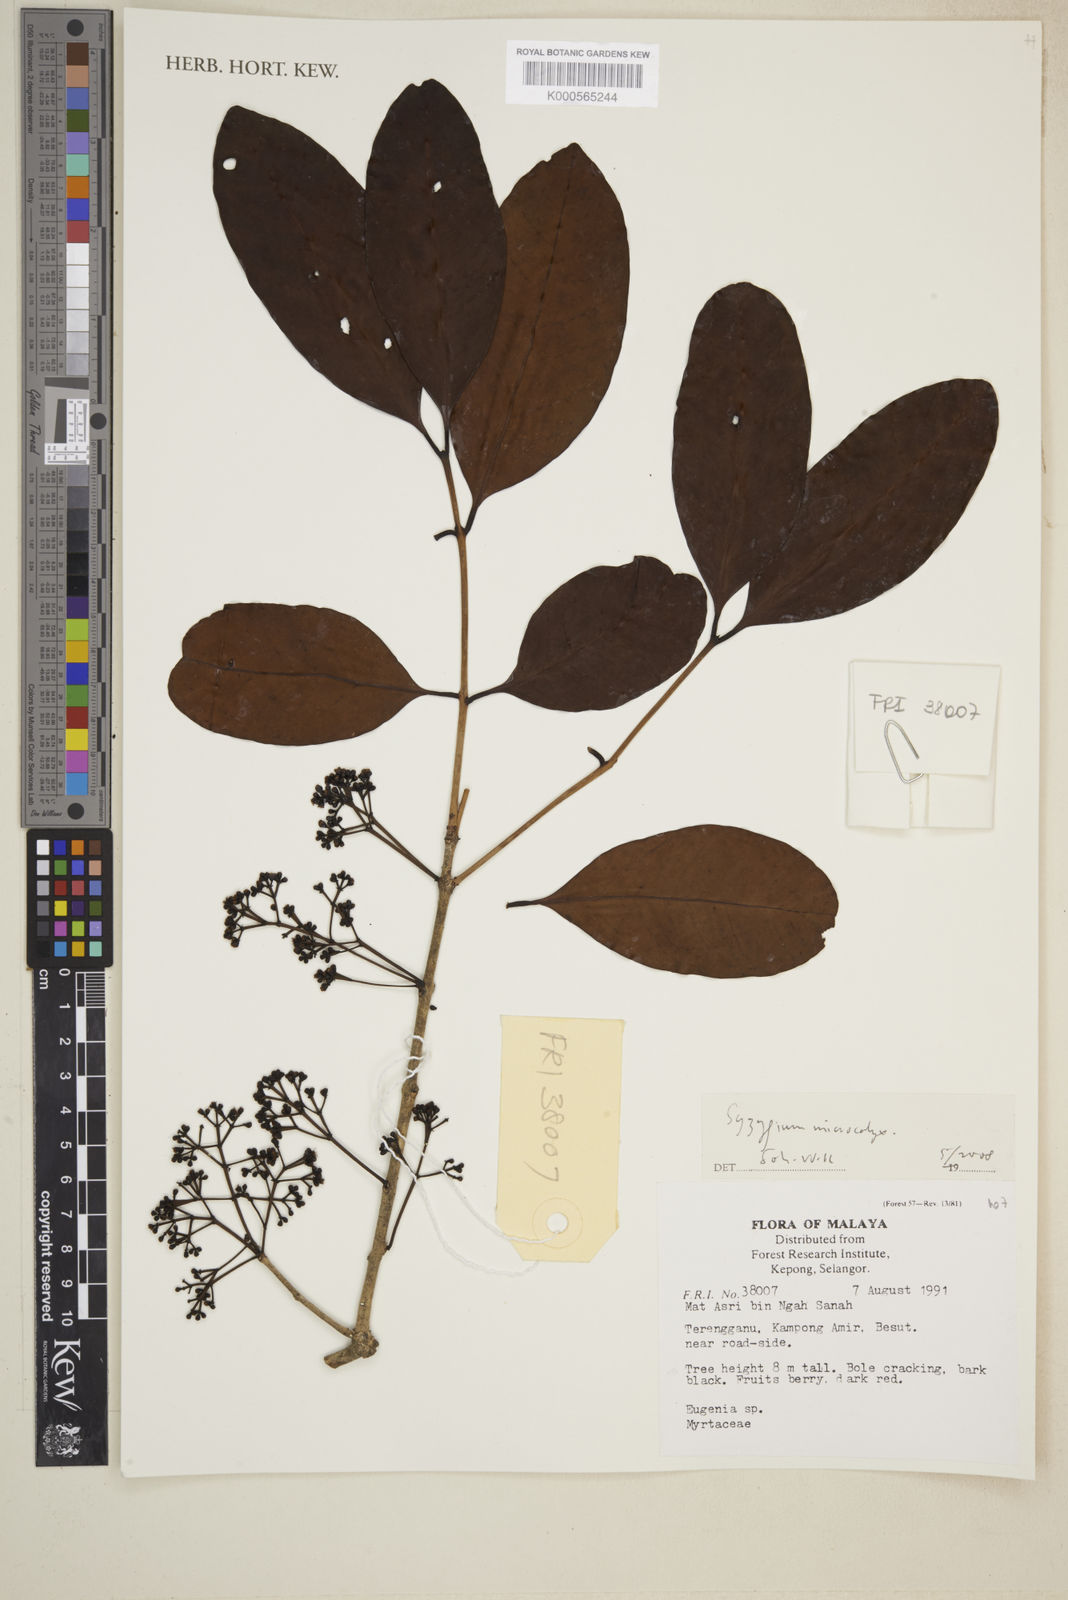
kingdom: Plantae
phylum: Tracheophyta
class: Magnoliopsida
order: Myrtales
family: Myrtaceae
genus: Syzygium
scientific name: Syzygium borneense
